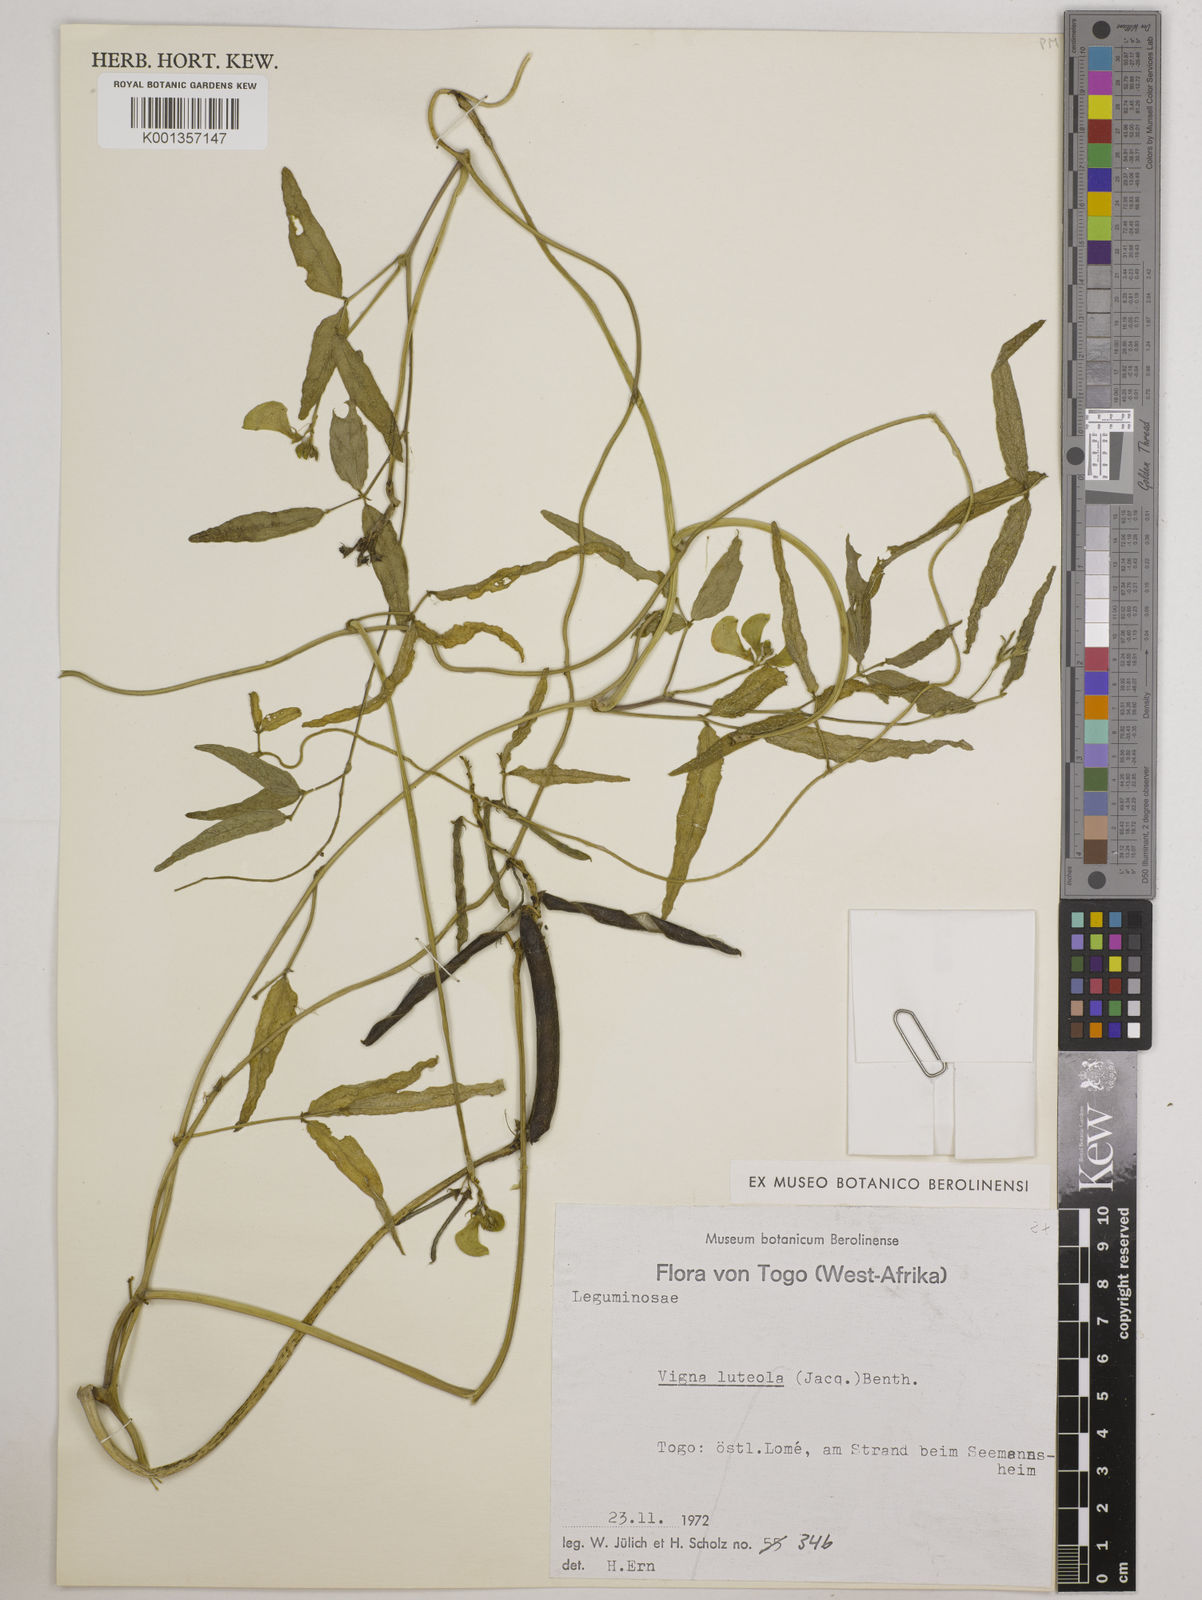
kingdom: Plantae
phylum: Tracheophyta
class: Magnoliopsida
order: Fabales
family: Fabaceae
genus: Vigna
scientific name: Vigna luteola
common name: Hairypod cowpea
